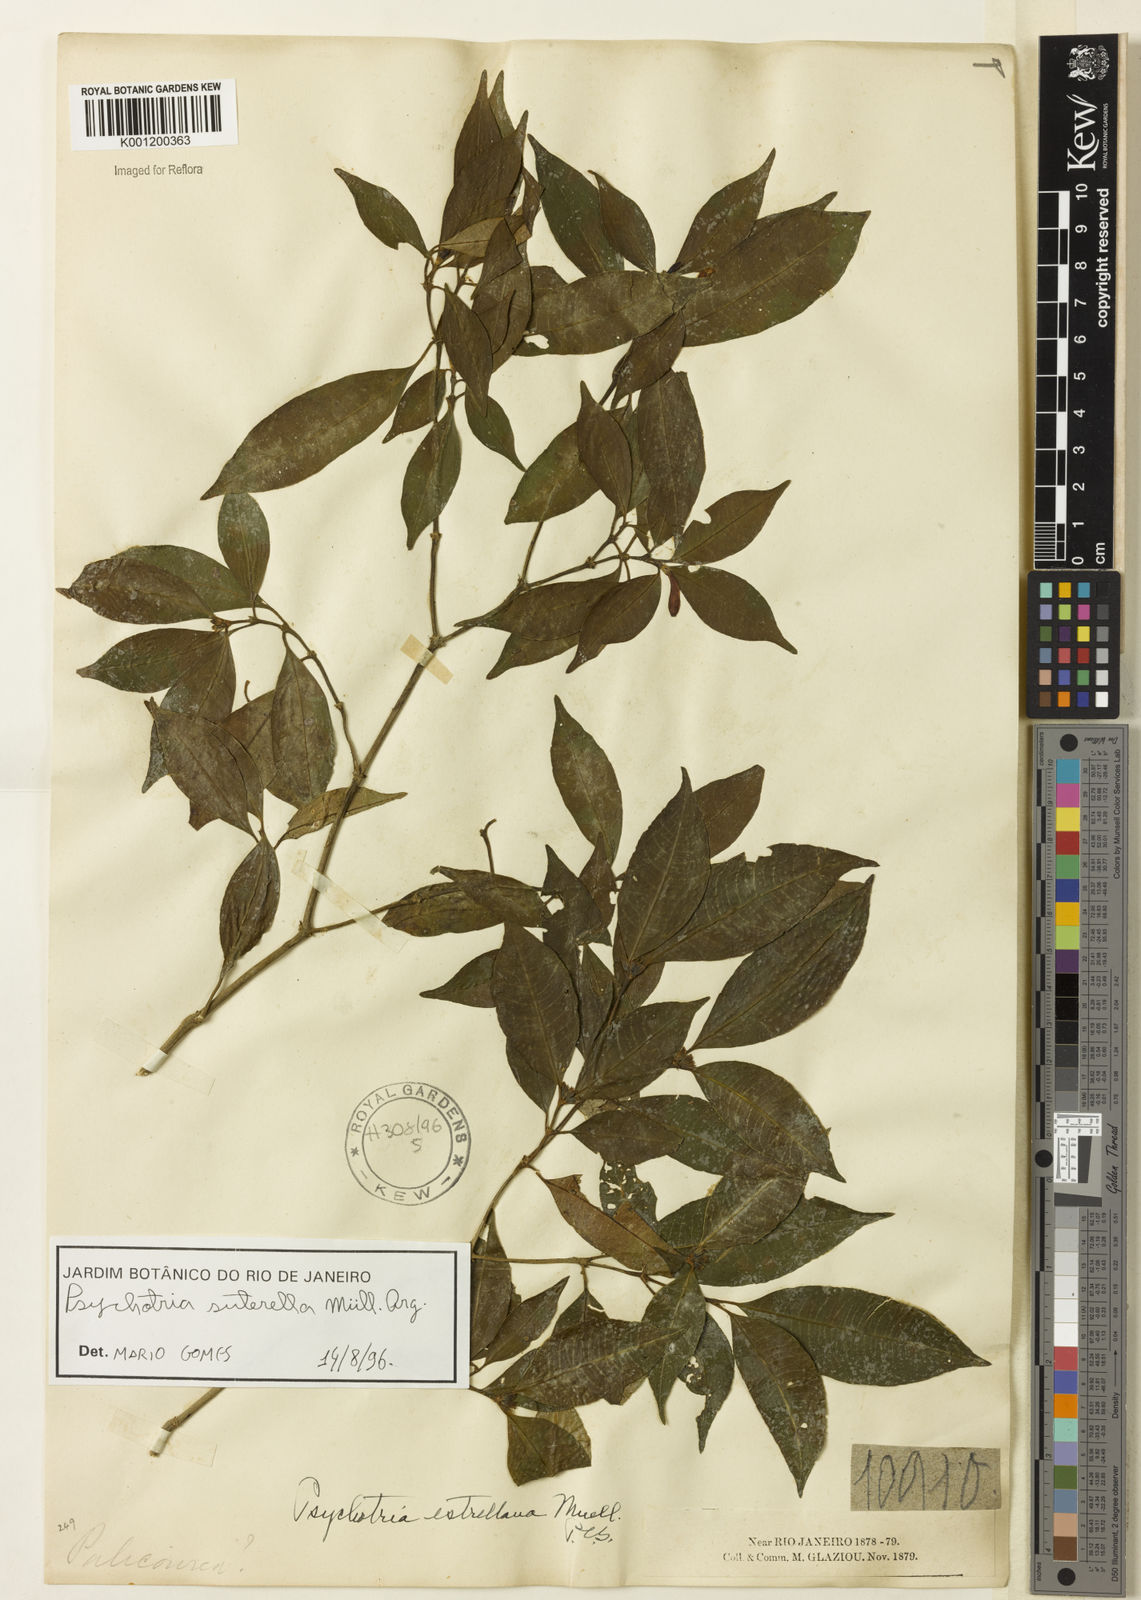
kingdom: Plantae
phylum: Tracheophyta
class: Magnoliopsida
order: Gentianales
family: Rubiaceae
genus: Psychotria
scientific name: Psychotria
